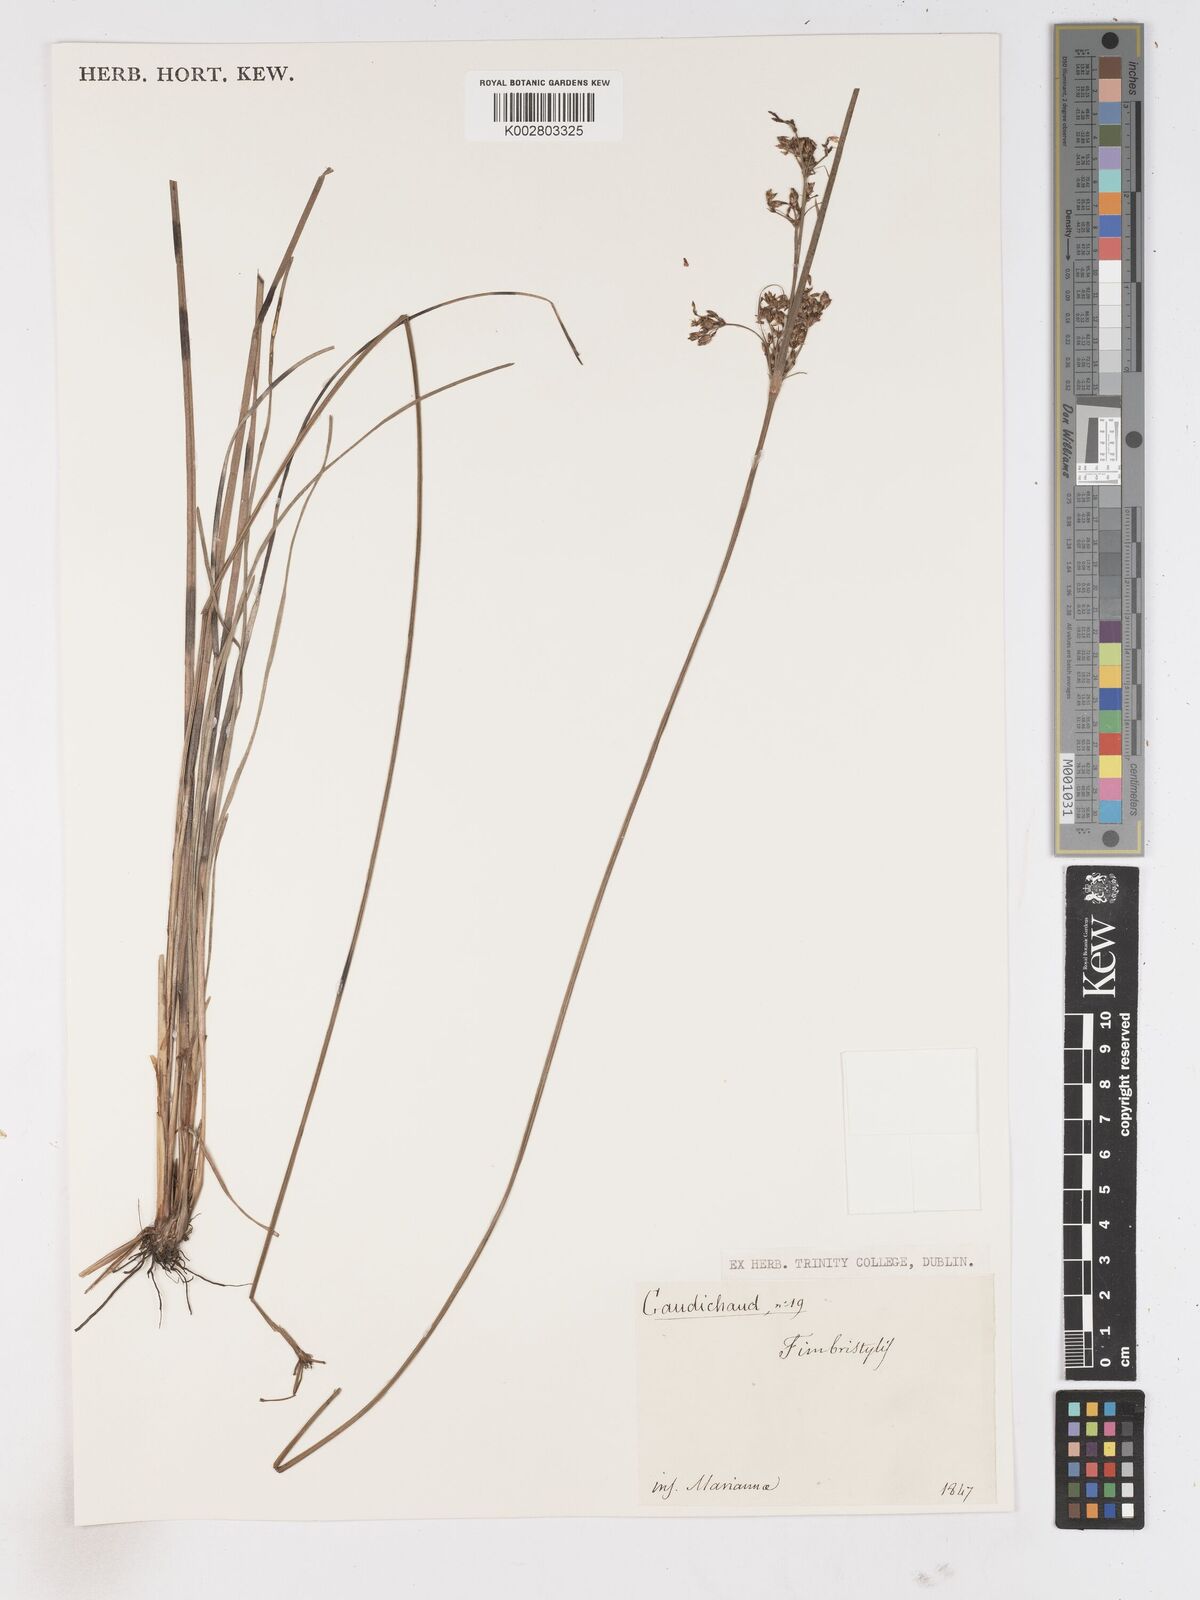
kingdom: Plantae
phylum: Tracheophyta
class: Liliopsida
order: Poales
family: Cyperaceae
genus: Fimbristylis
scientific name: Fimbristylis
